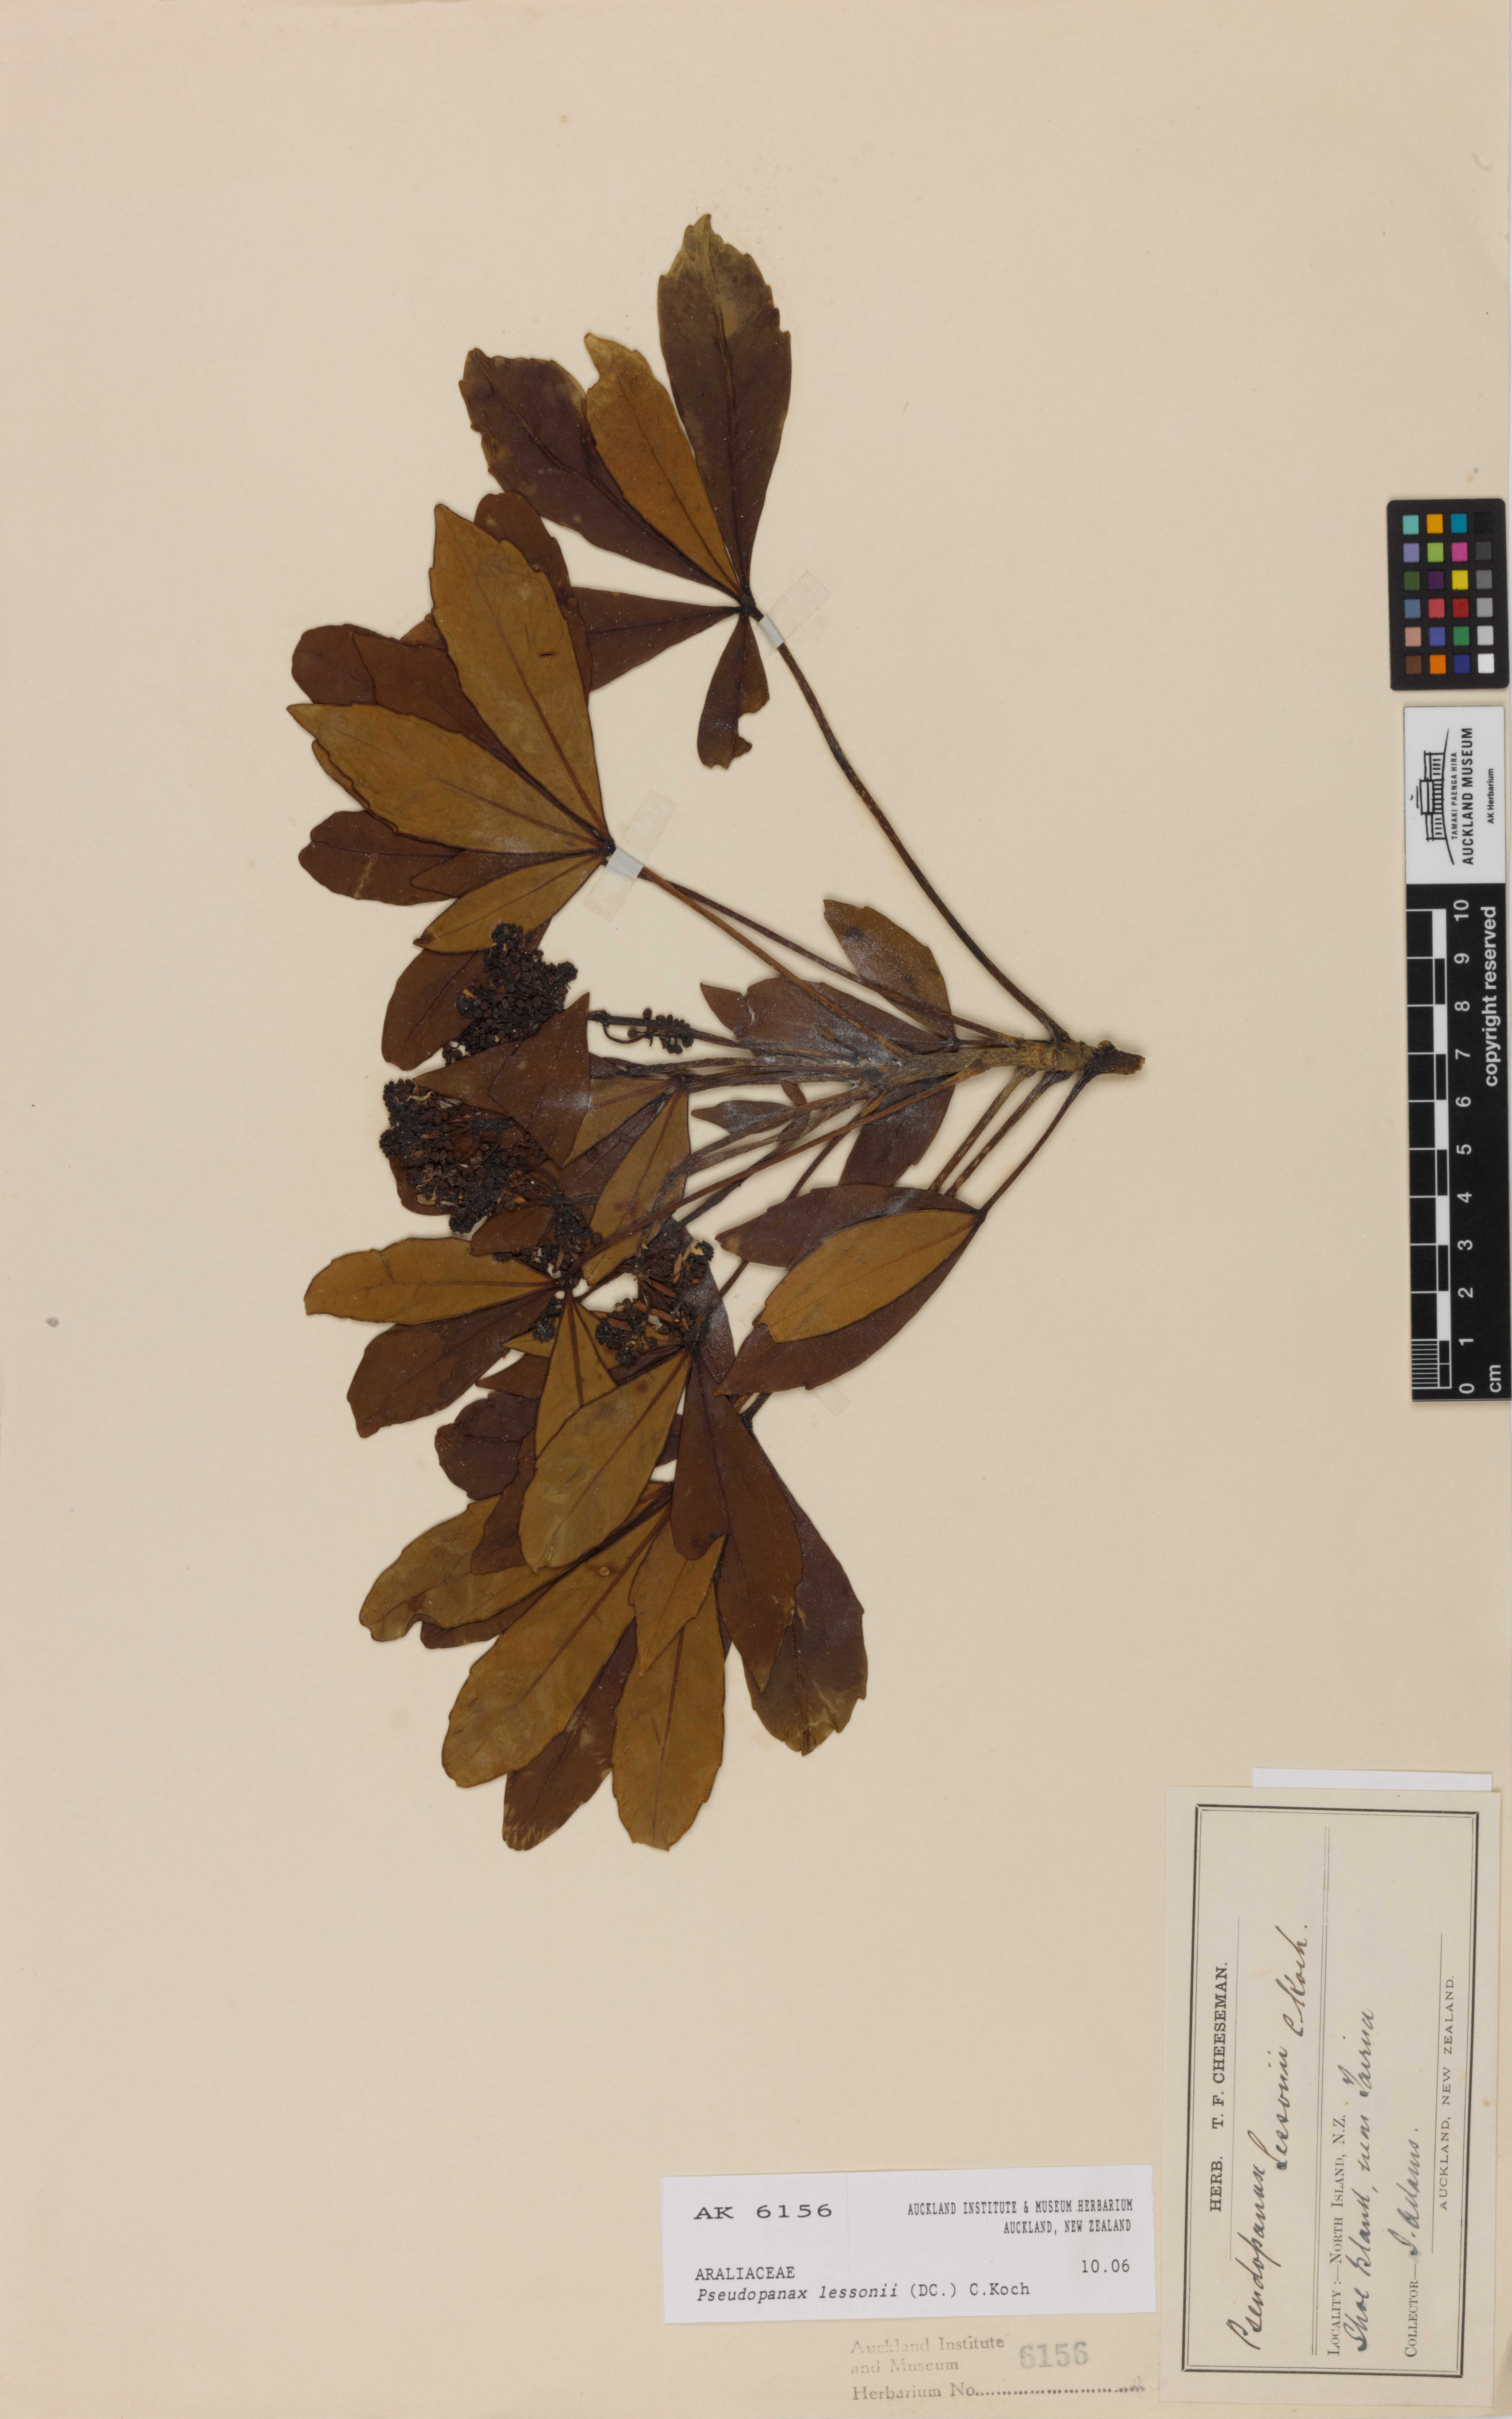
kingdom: Plantae
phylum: Tracheophyta
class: Magnoliopsida
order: Apiales
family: Araliaceae
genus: Pseudopanax
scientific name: Pseudopanax lessonii
